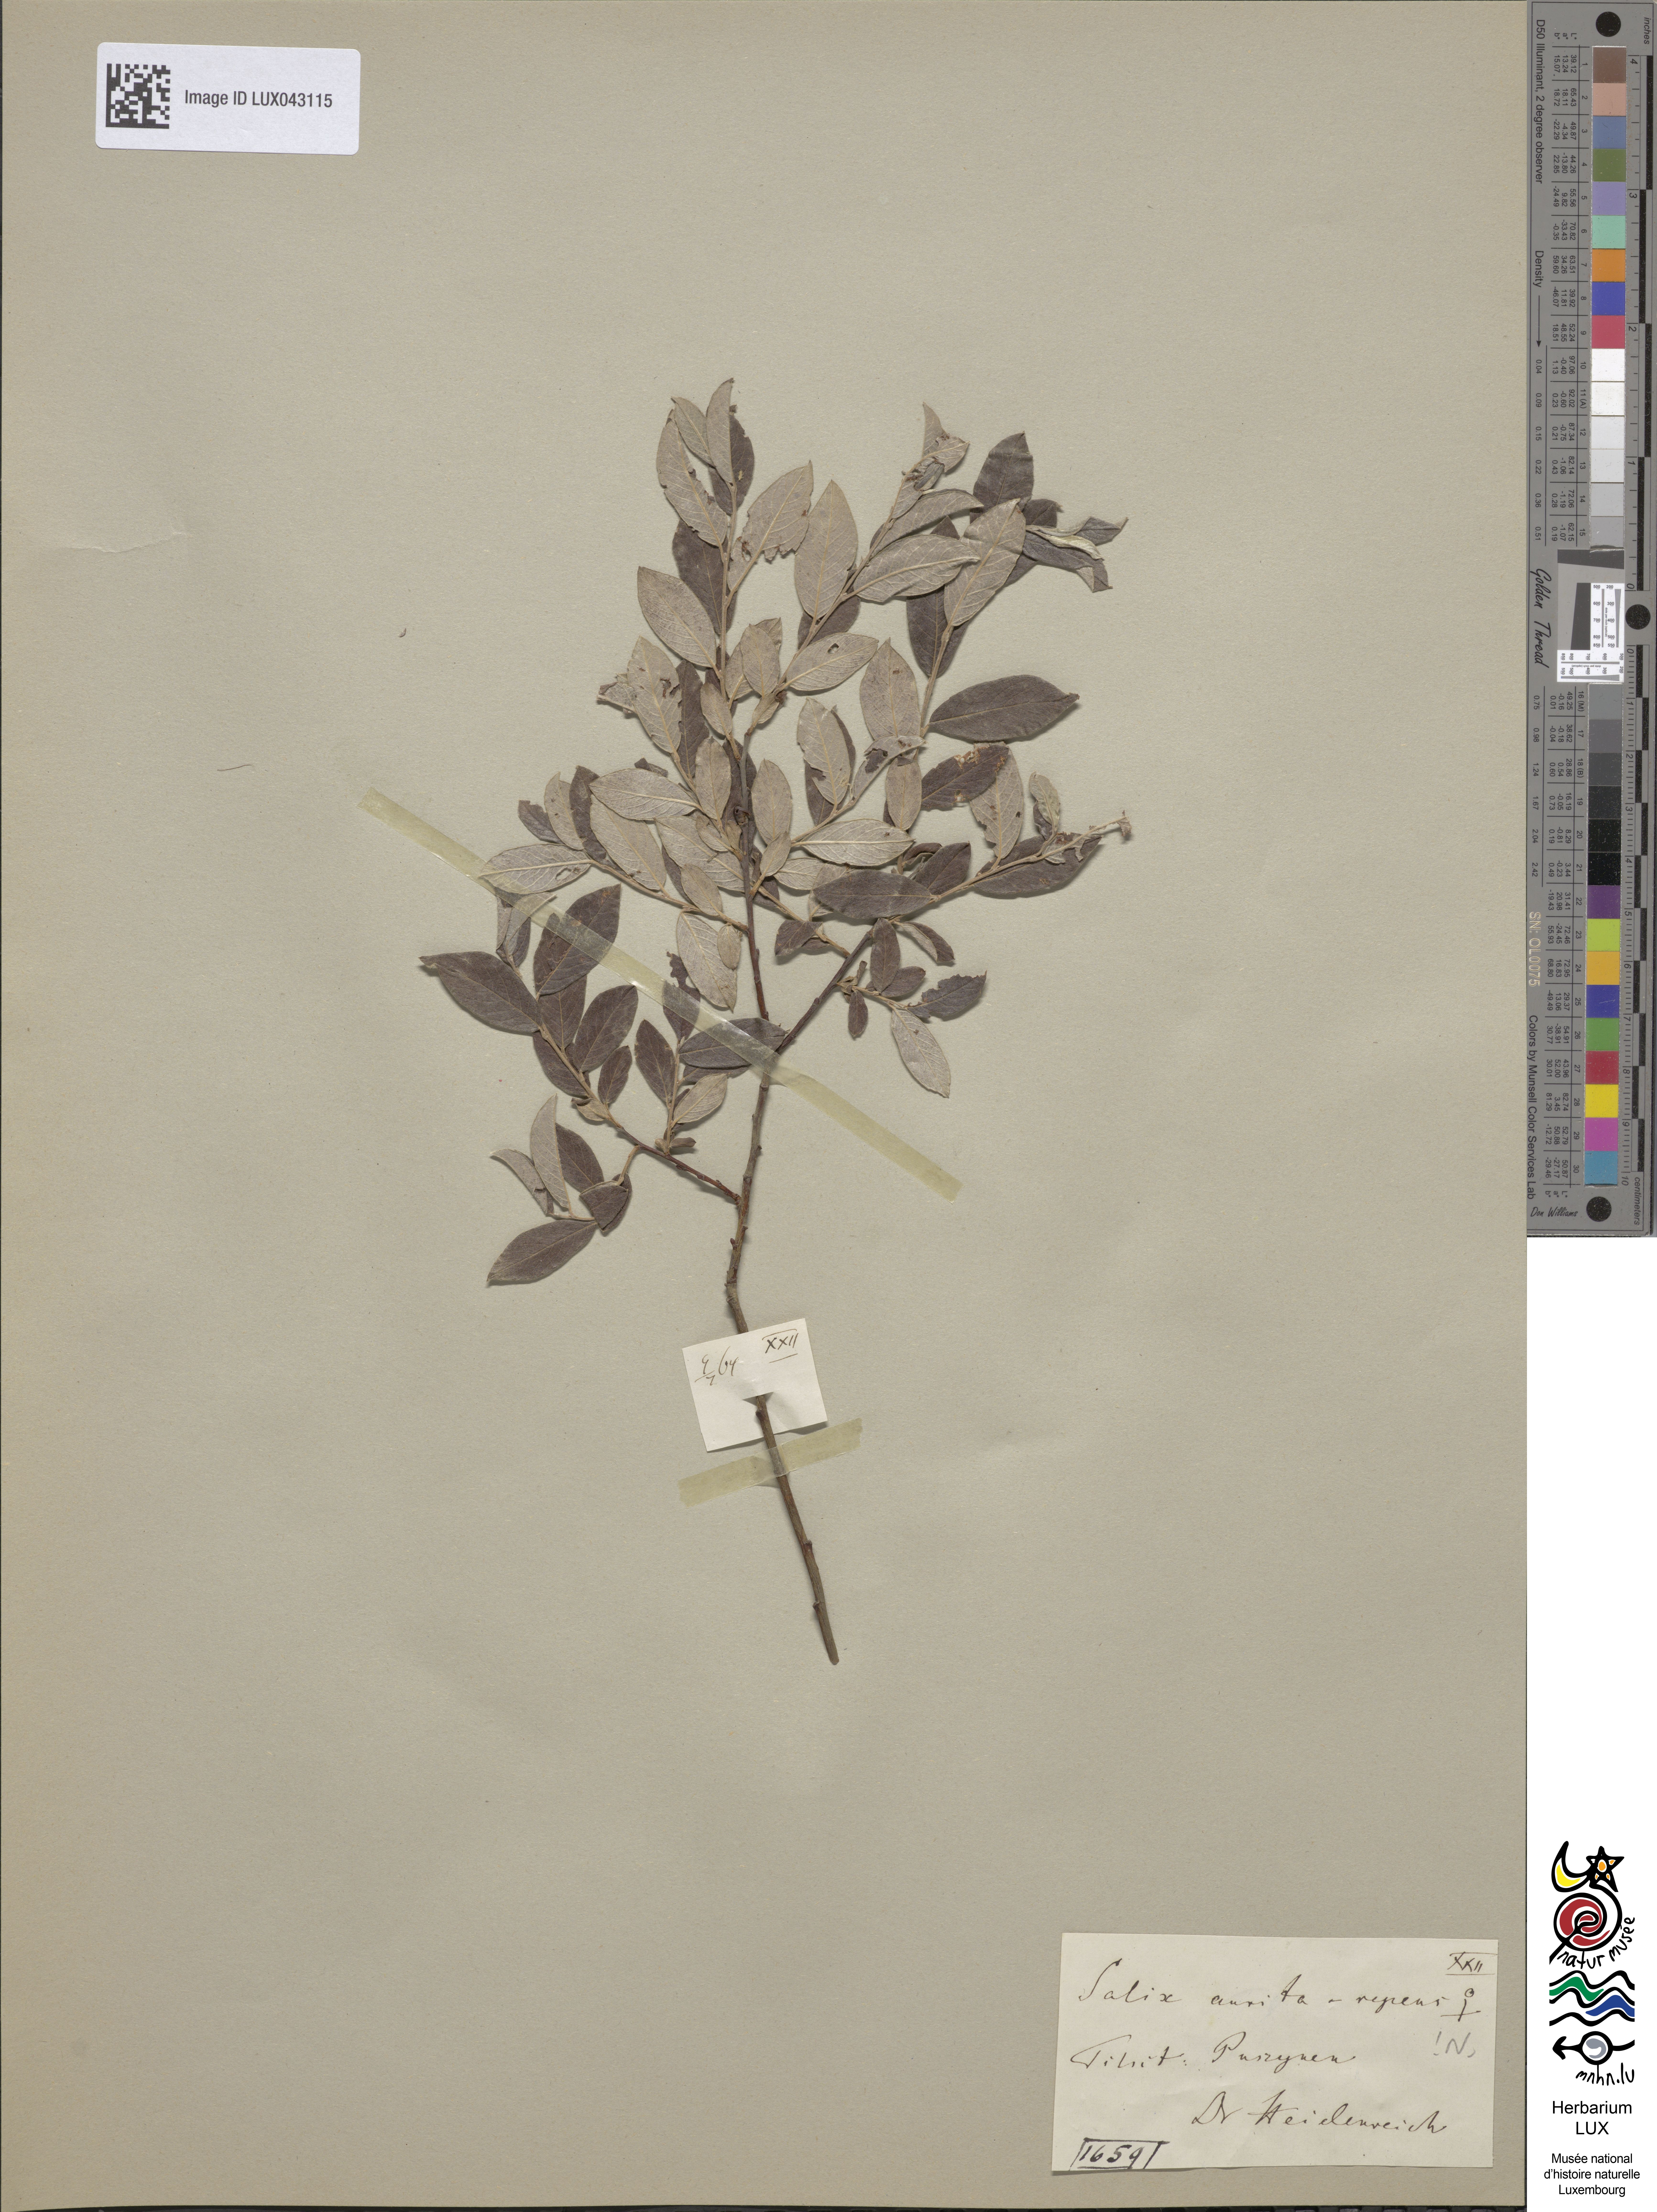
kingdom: Plantae
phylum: Tracheophyta
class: Magnoliopsida
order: Malpighiales
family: Salicaceae
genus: Salix
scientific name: Salix
